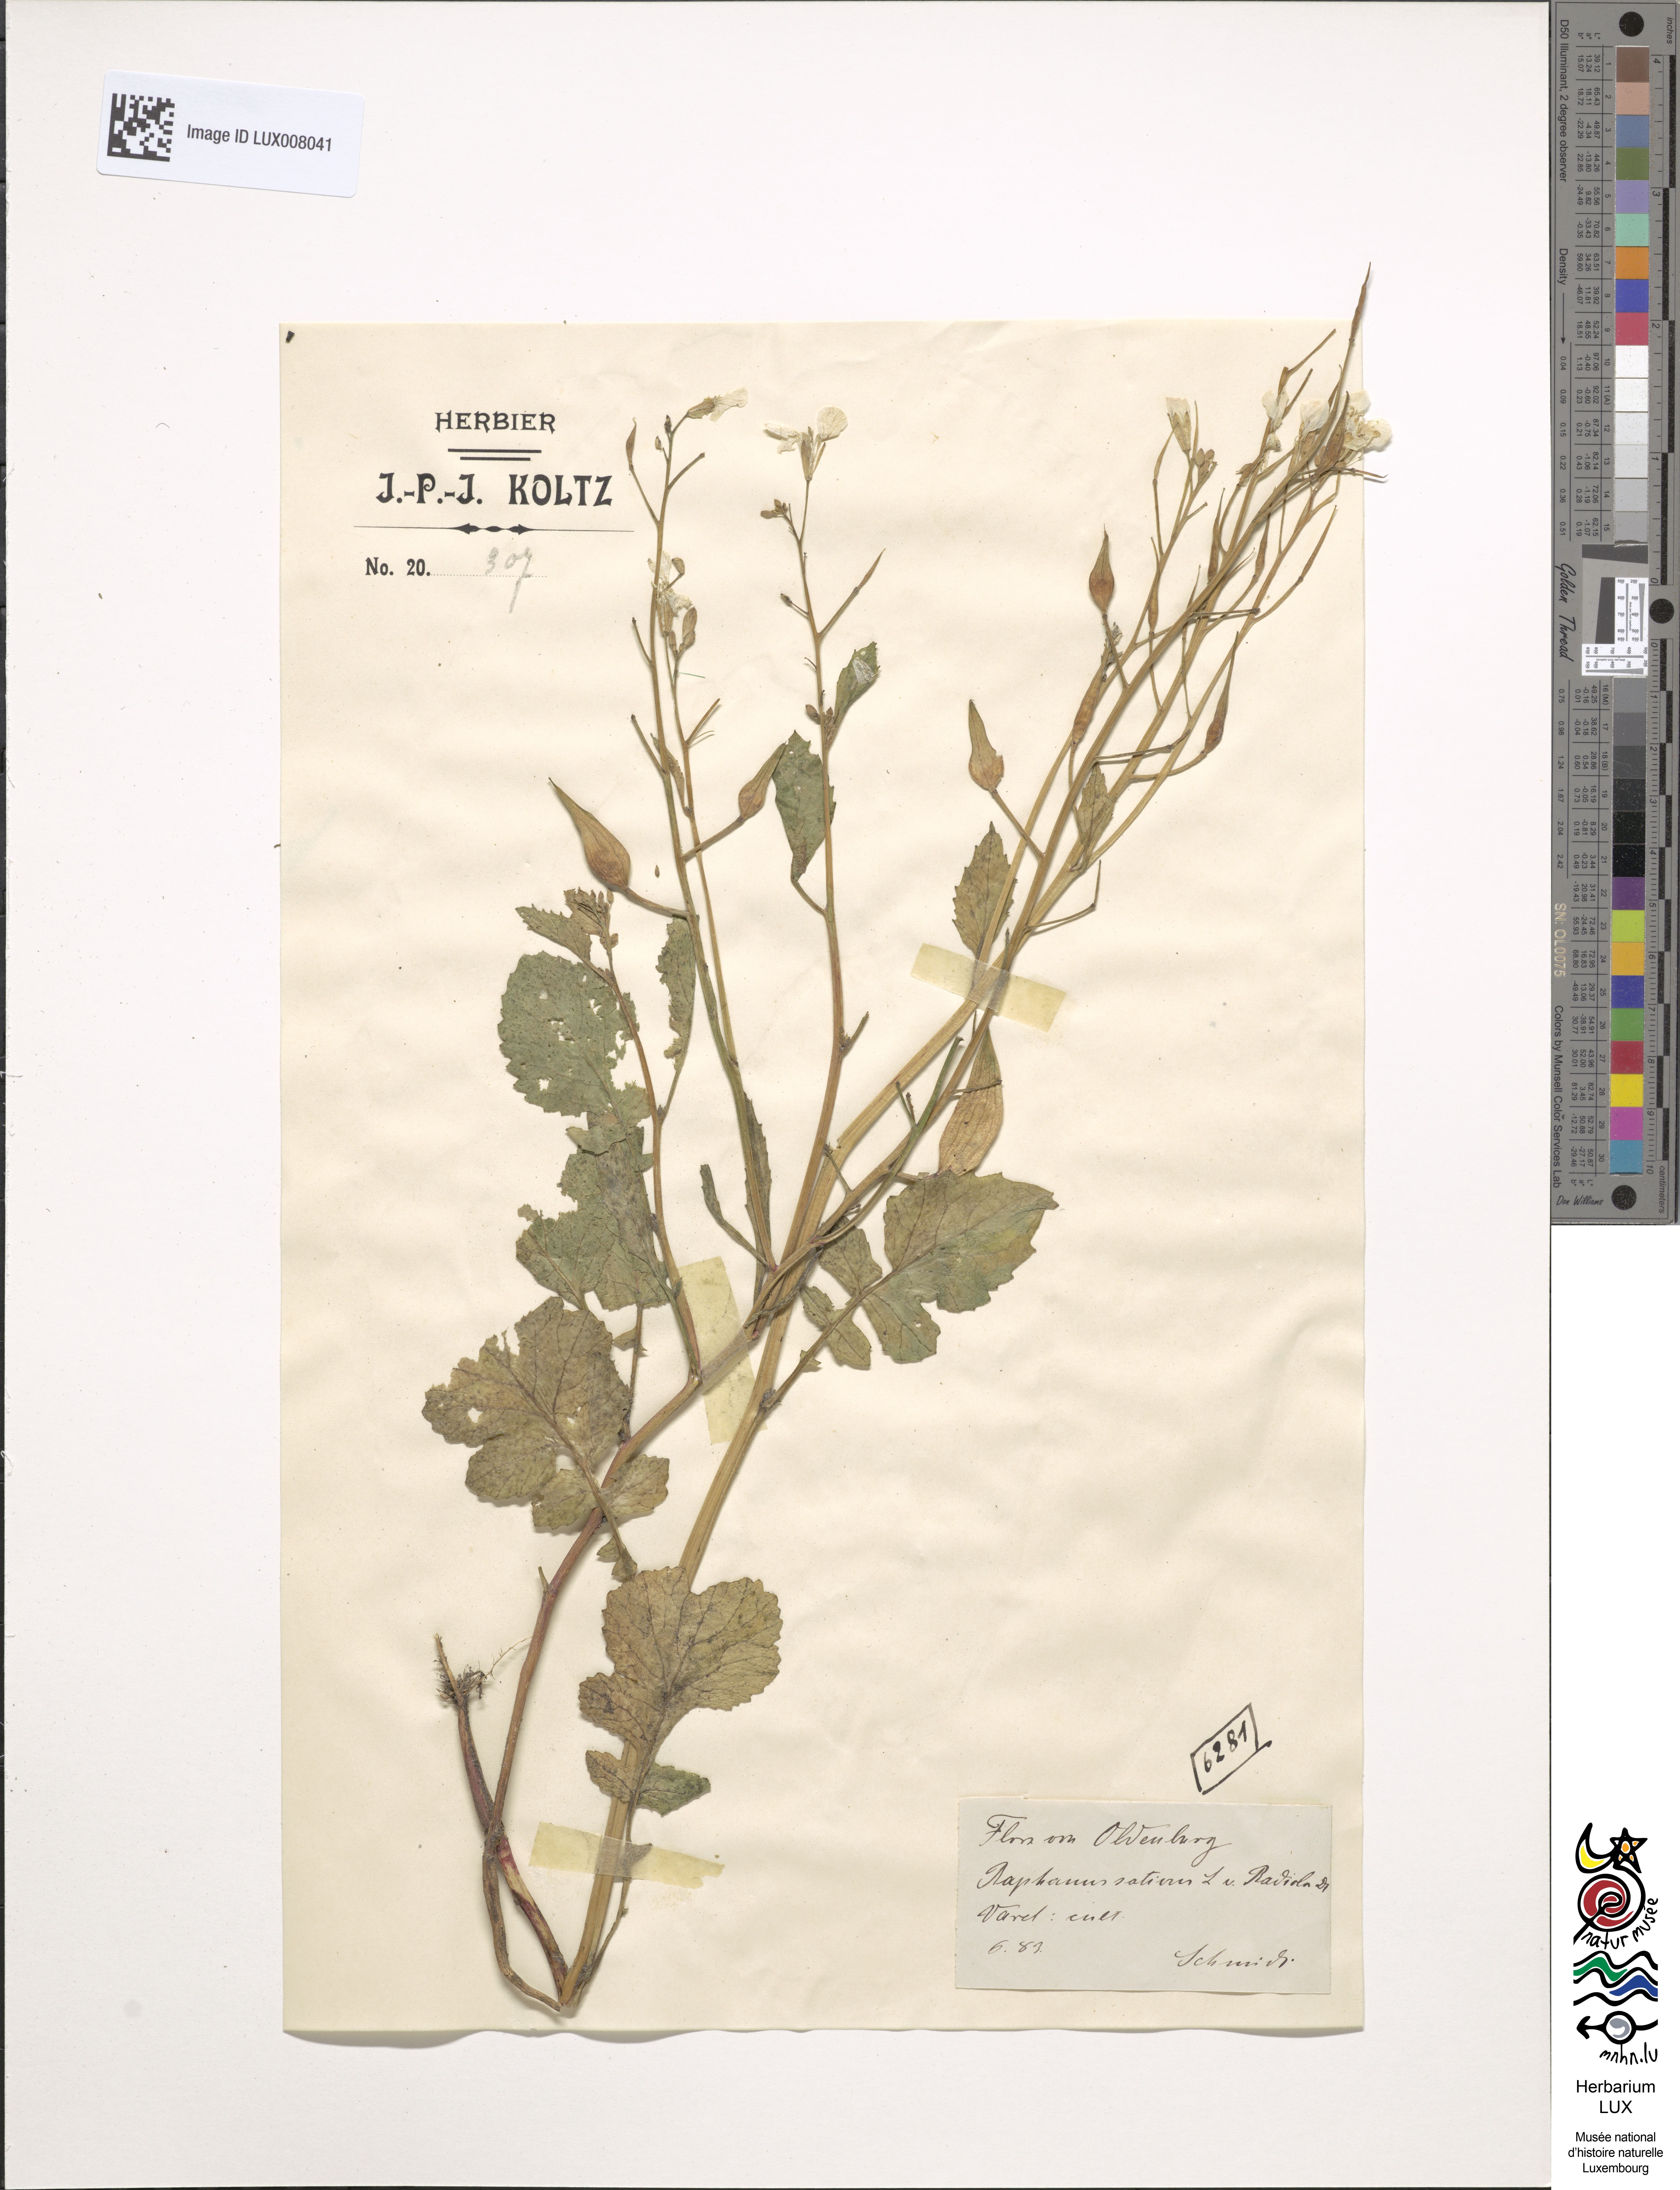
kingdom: Plantae
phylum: Tracheophyta
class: Magnoliopsida
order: Brassicales
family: Brassicaceae
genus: Raphanus
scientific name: Raphanus sativus
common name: Cultivated radish
